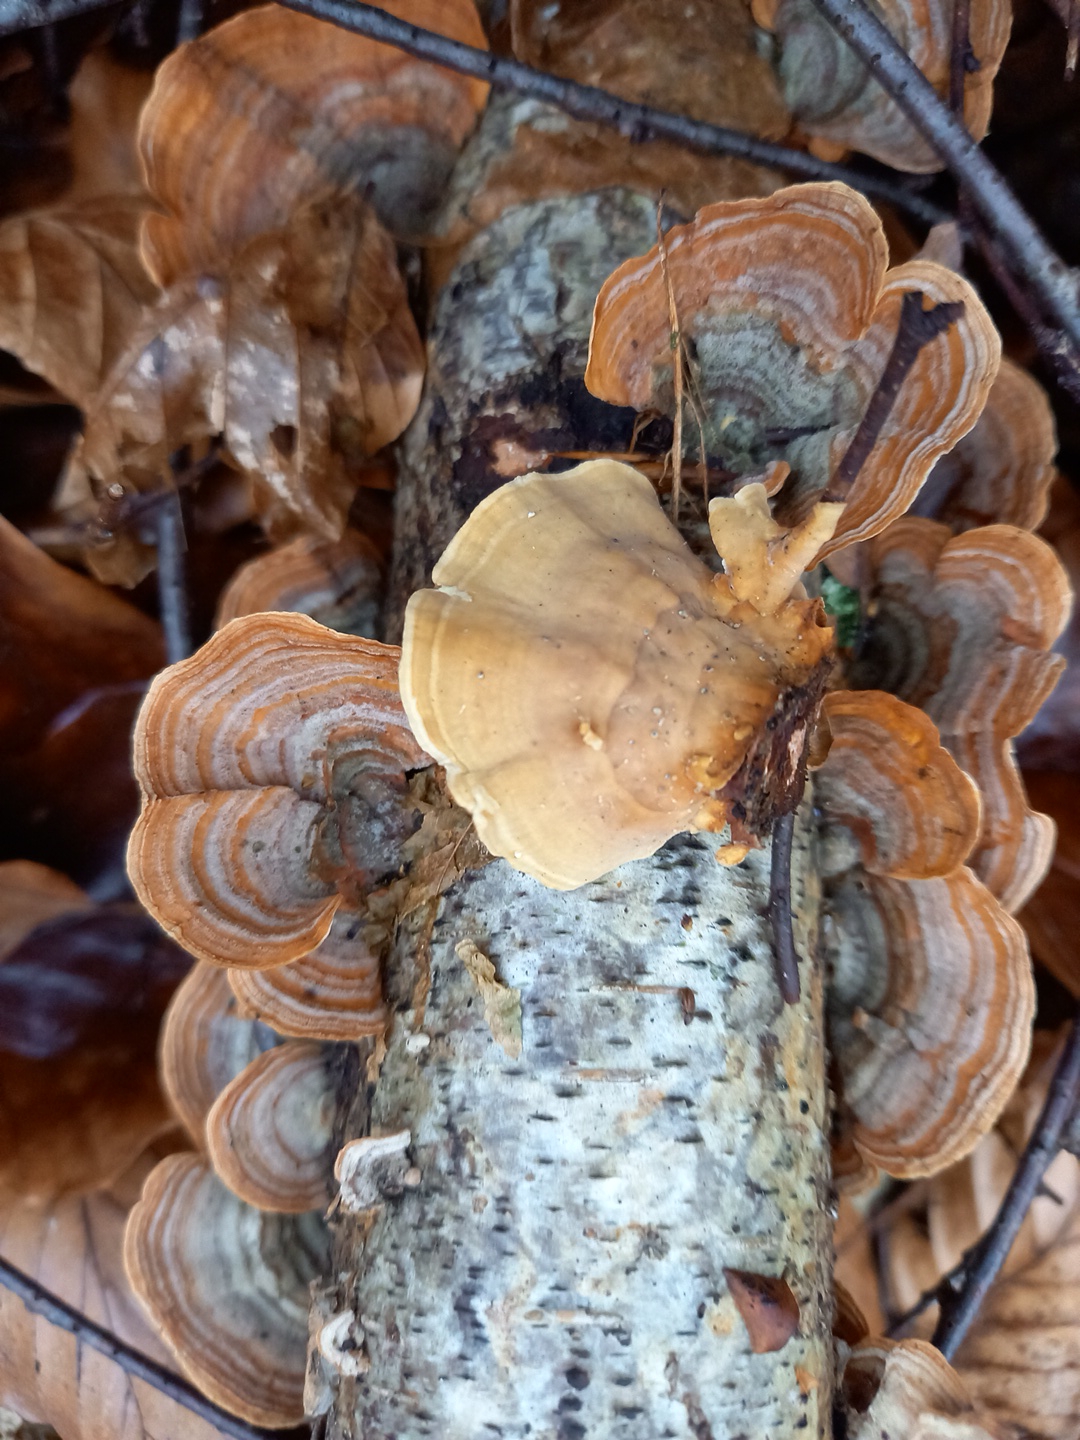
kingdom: Fungi
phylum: Basidiomycota
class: Agaricomycetes
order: Russulales
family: Stereaceae
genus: Stereum
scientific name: Stereum subtomentosum
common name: smuk lædersvamp
